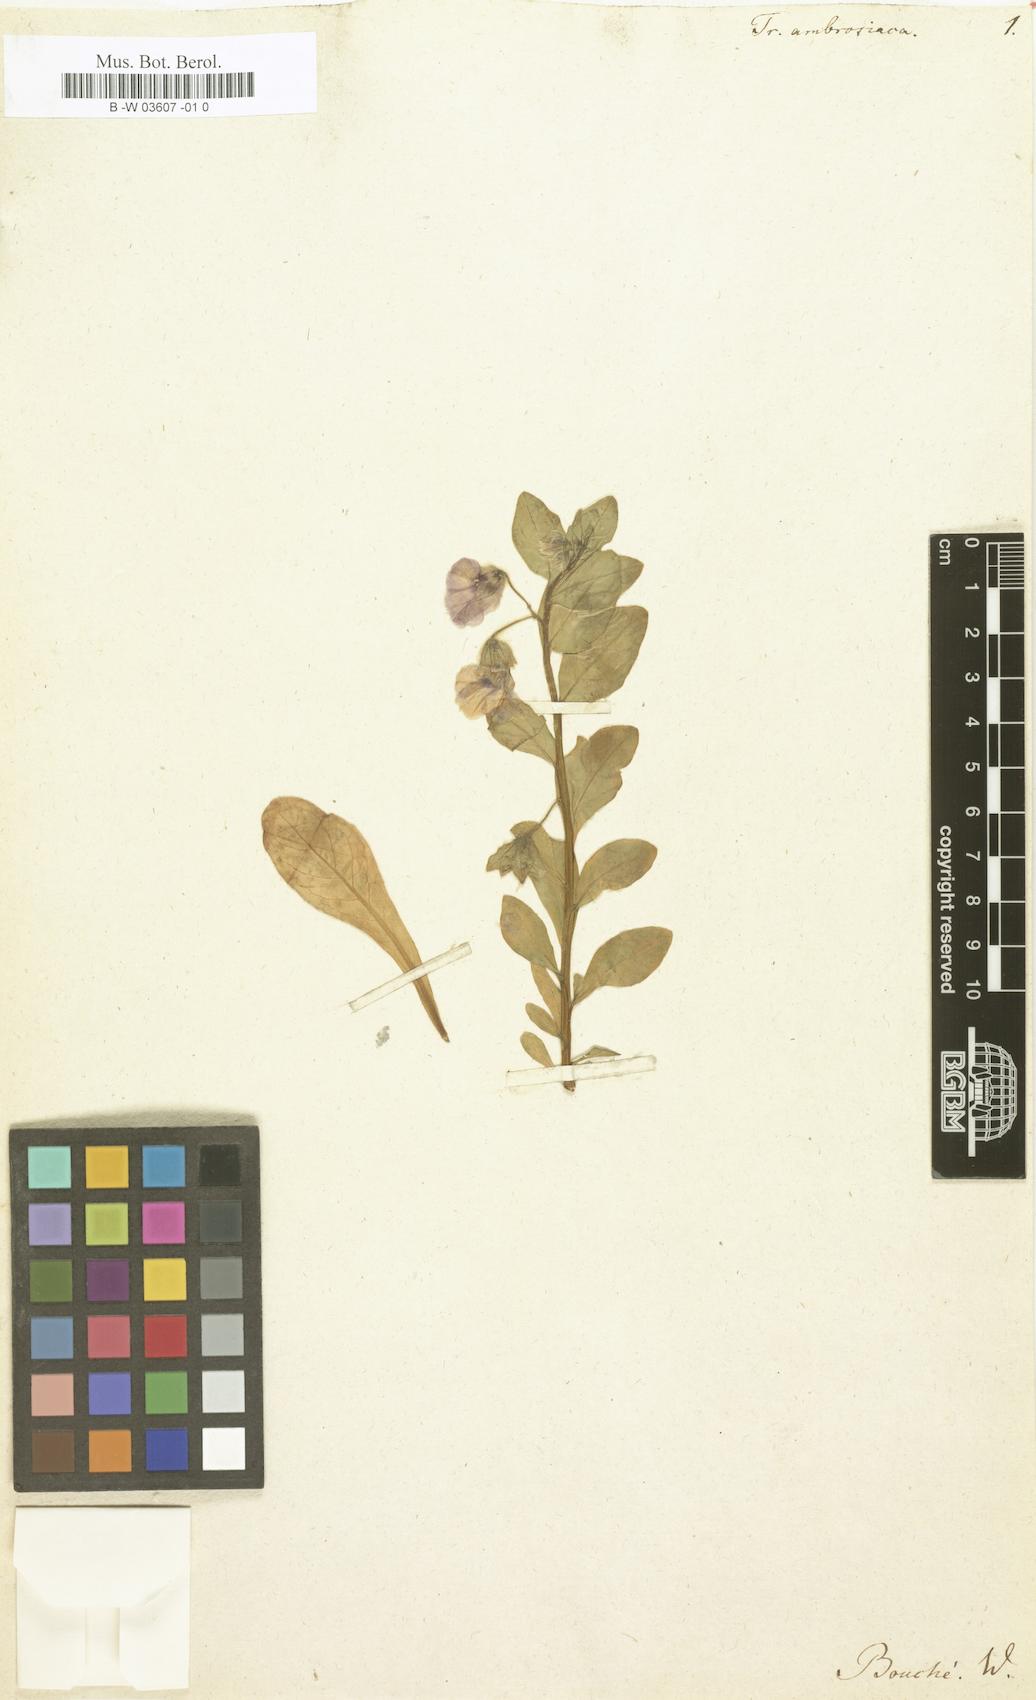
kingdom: Plantae
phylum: Tracheophyta
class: Magnoliopsida
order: Solanales
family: Solanaceae
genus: Solanum
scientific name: Solanum herculeum
